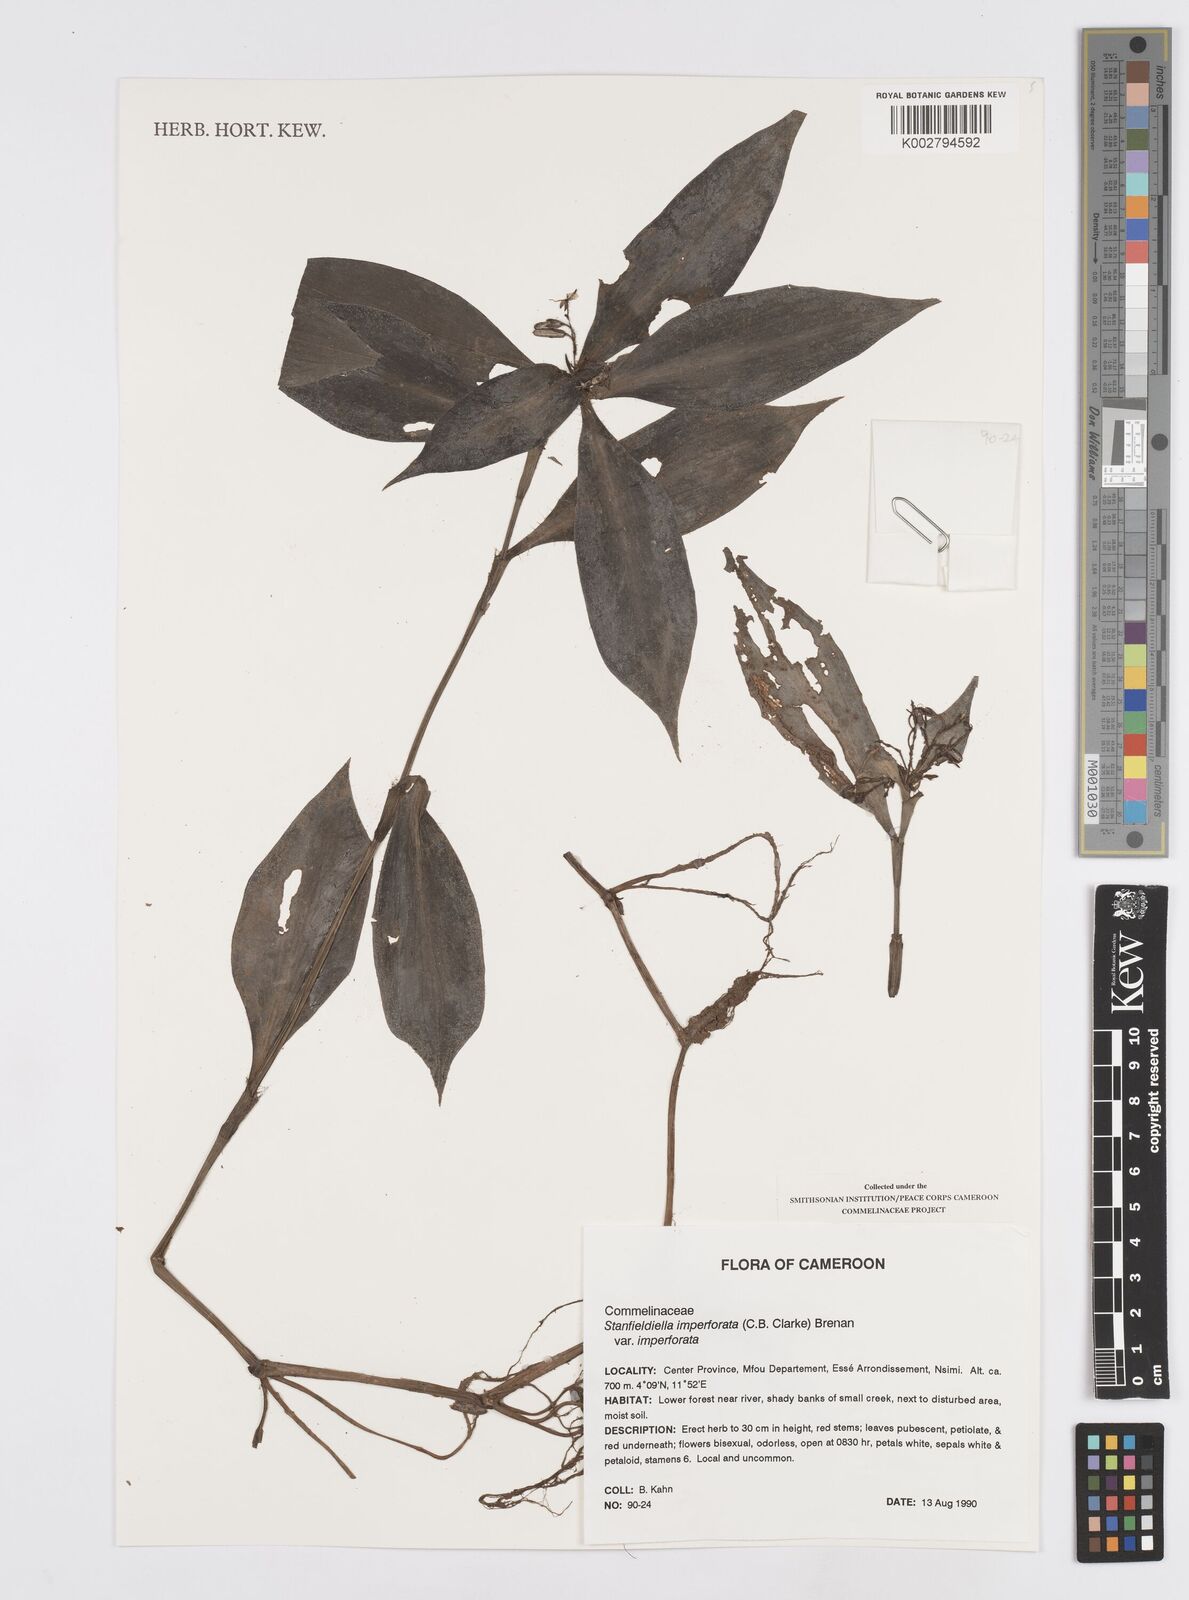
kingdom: Plantae
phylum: Tracheophyta
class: Liliopsida
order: Commelinales
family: Commelinaceae
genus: Stanfieldiella
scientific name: Stanfieldiella imperforata
